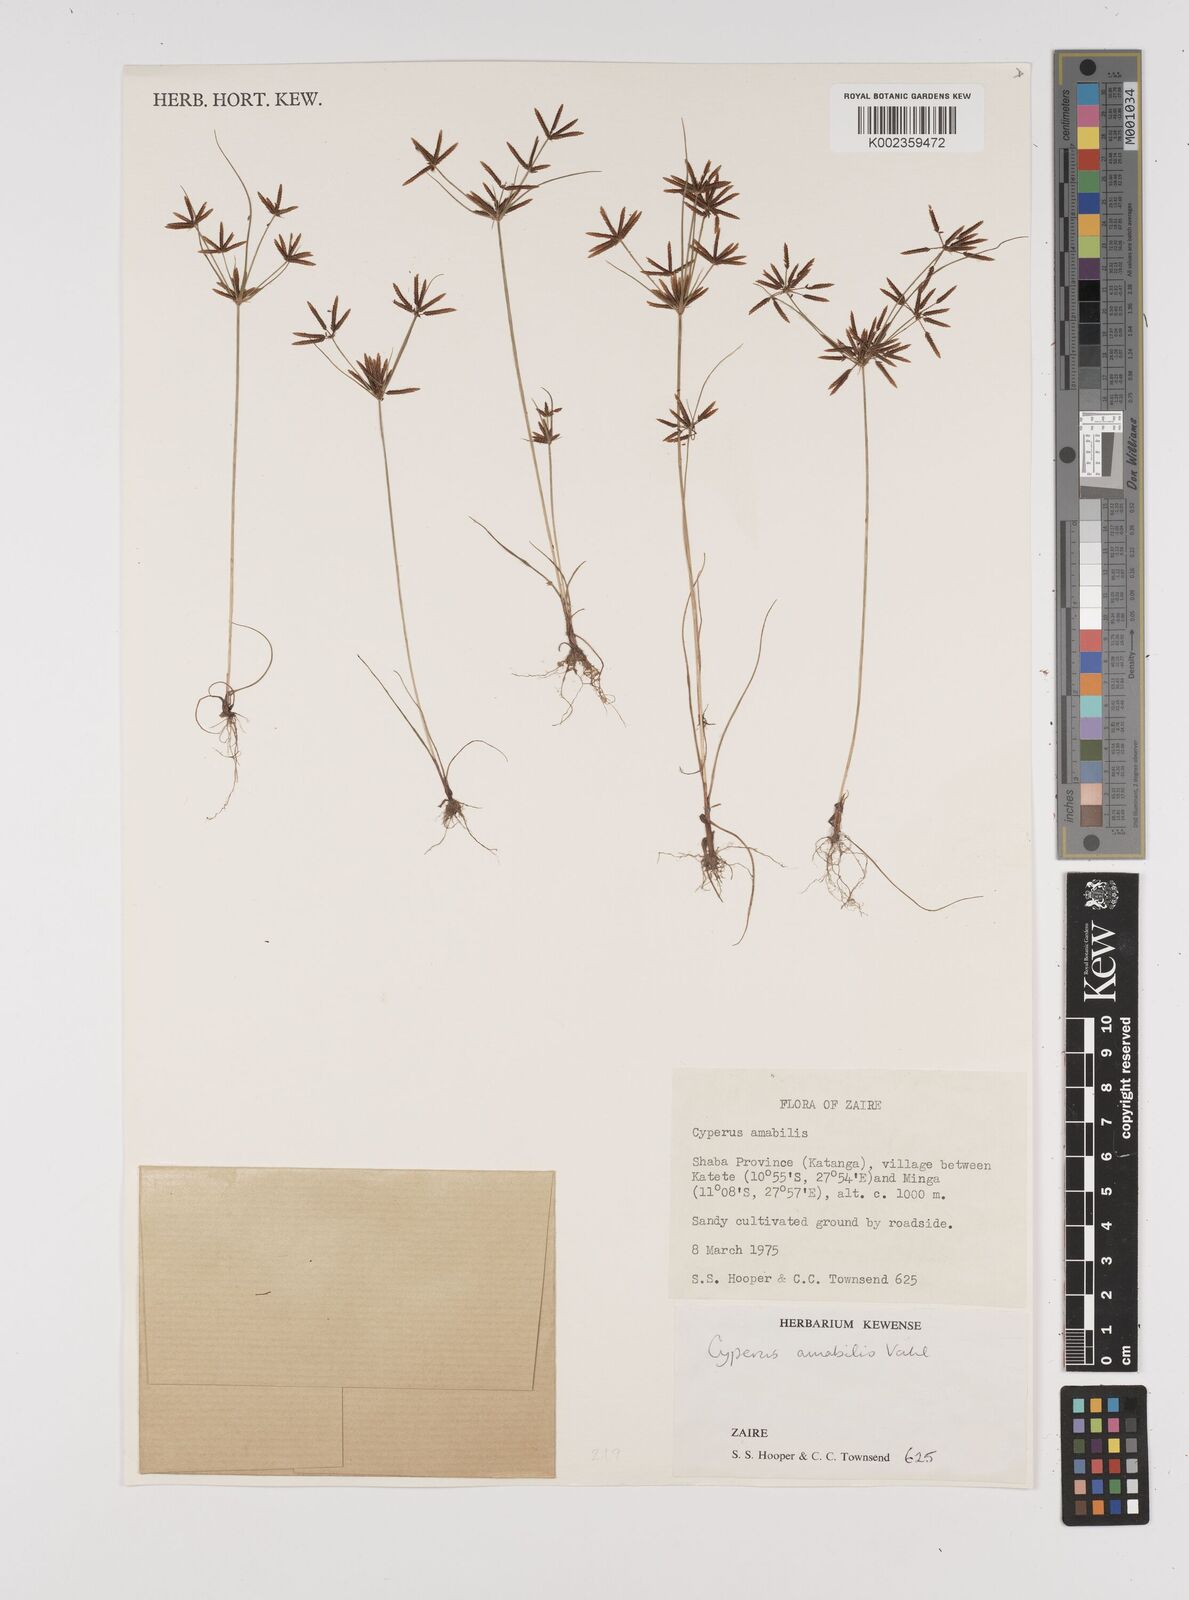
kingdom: Plantae
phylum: Tracheophyta
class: Liliopsida
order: Poales
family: Cyperaceae
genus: Cyperus
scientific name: Cyperus amabilis
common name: Foothill flat sedge
